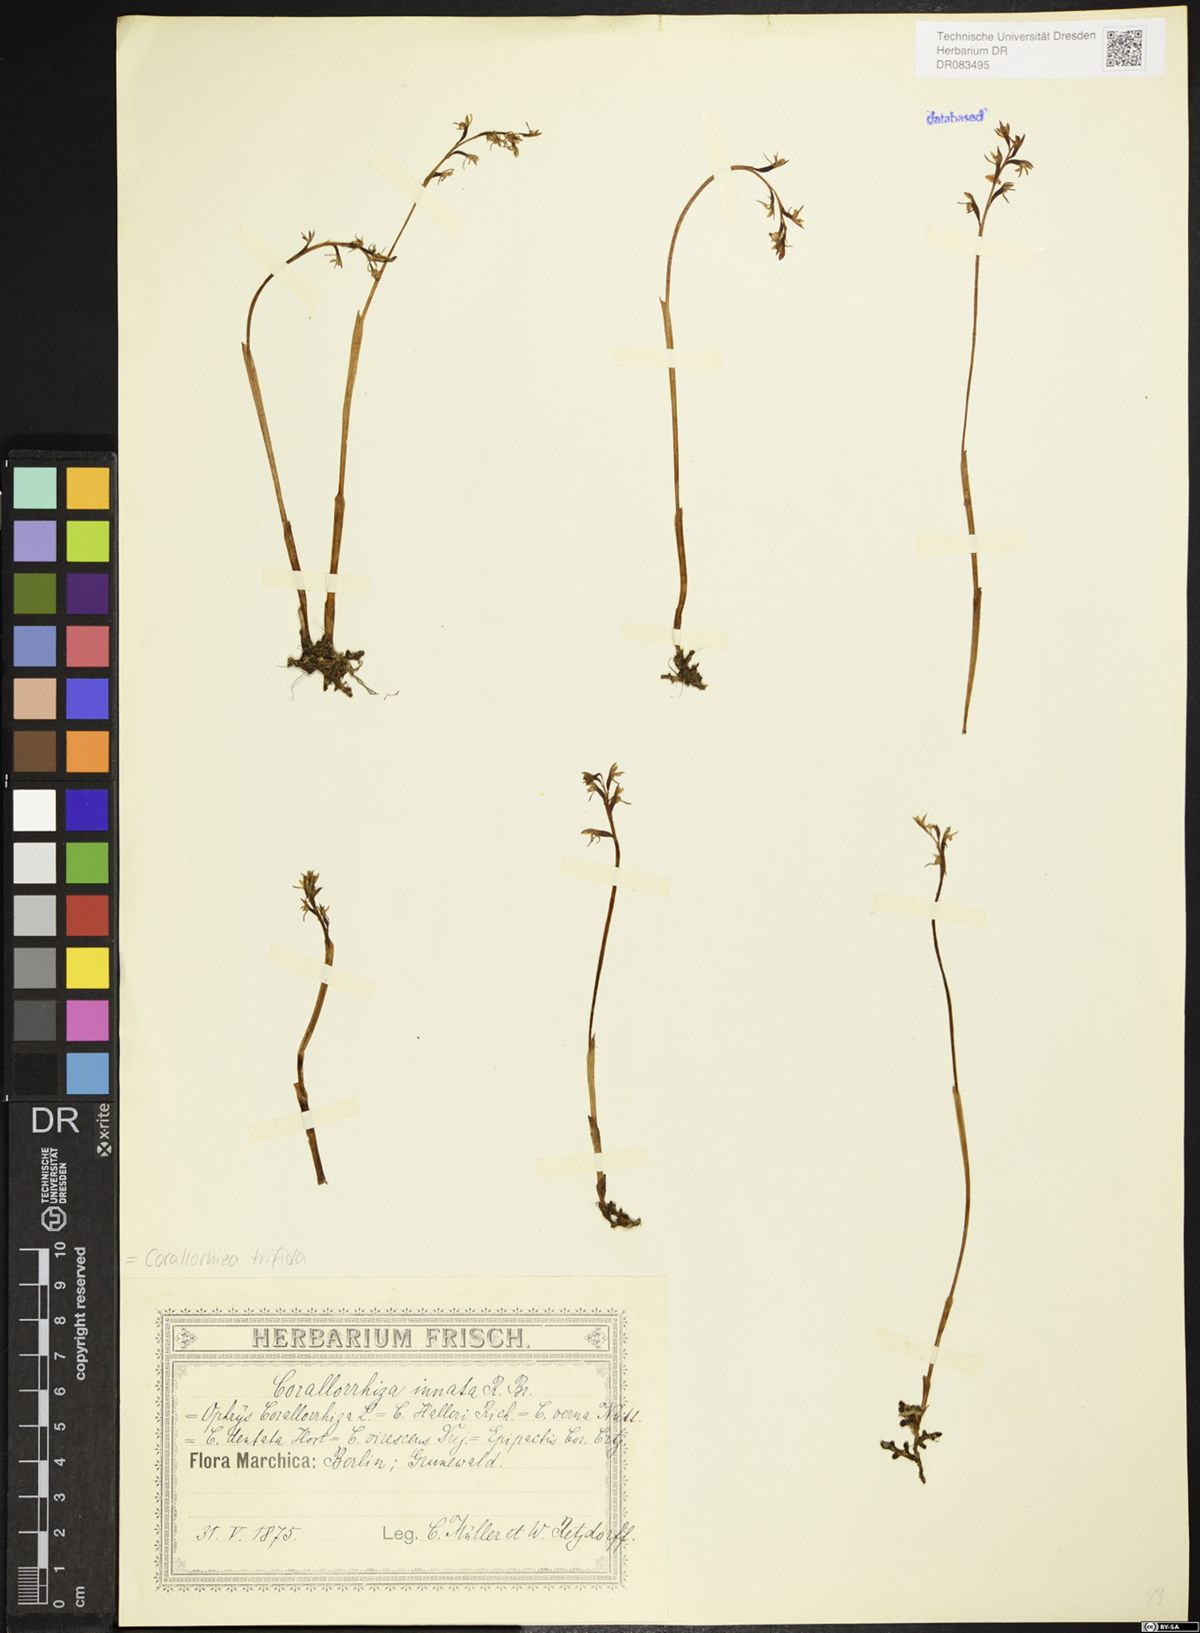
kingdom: Plantae
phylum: Tracheophyta
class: Liliopsida
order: Asparagales
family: Orchidaceae
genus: Corallorhiza
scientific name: Corallorhiza trifida
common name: Yellow coralroot
